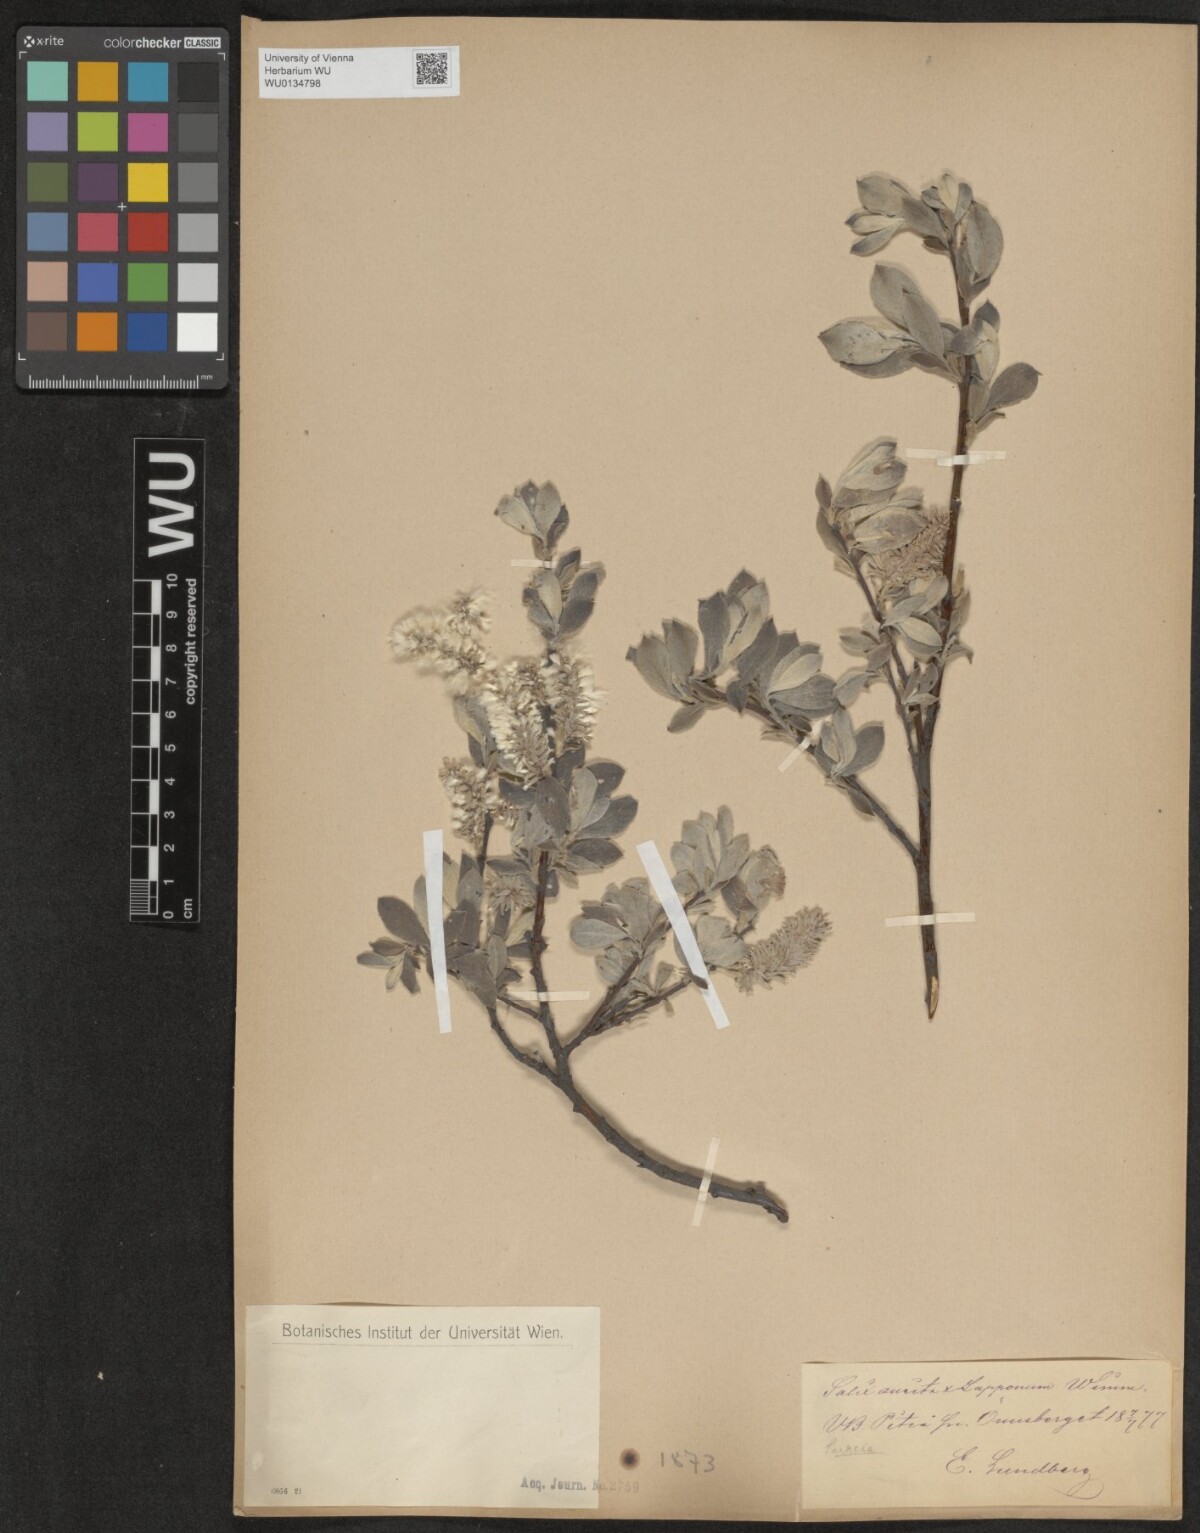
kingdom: Plantae
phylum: Tracheophyta
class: Magnoliopsida
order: Malpighiales
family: Salicaceae
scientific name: Salicaceae
